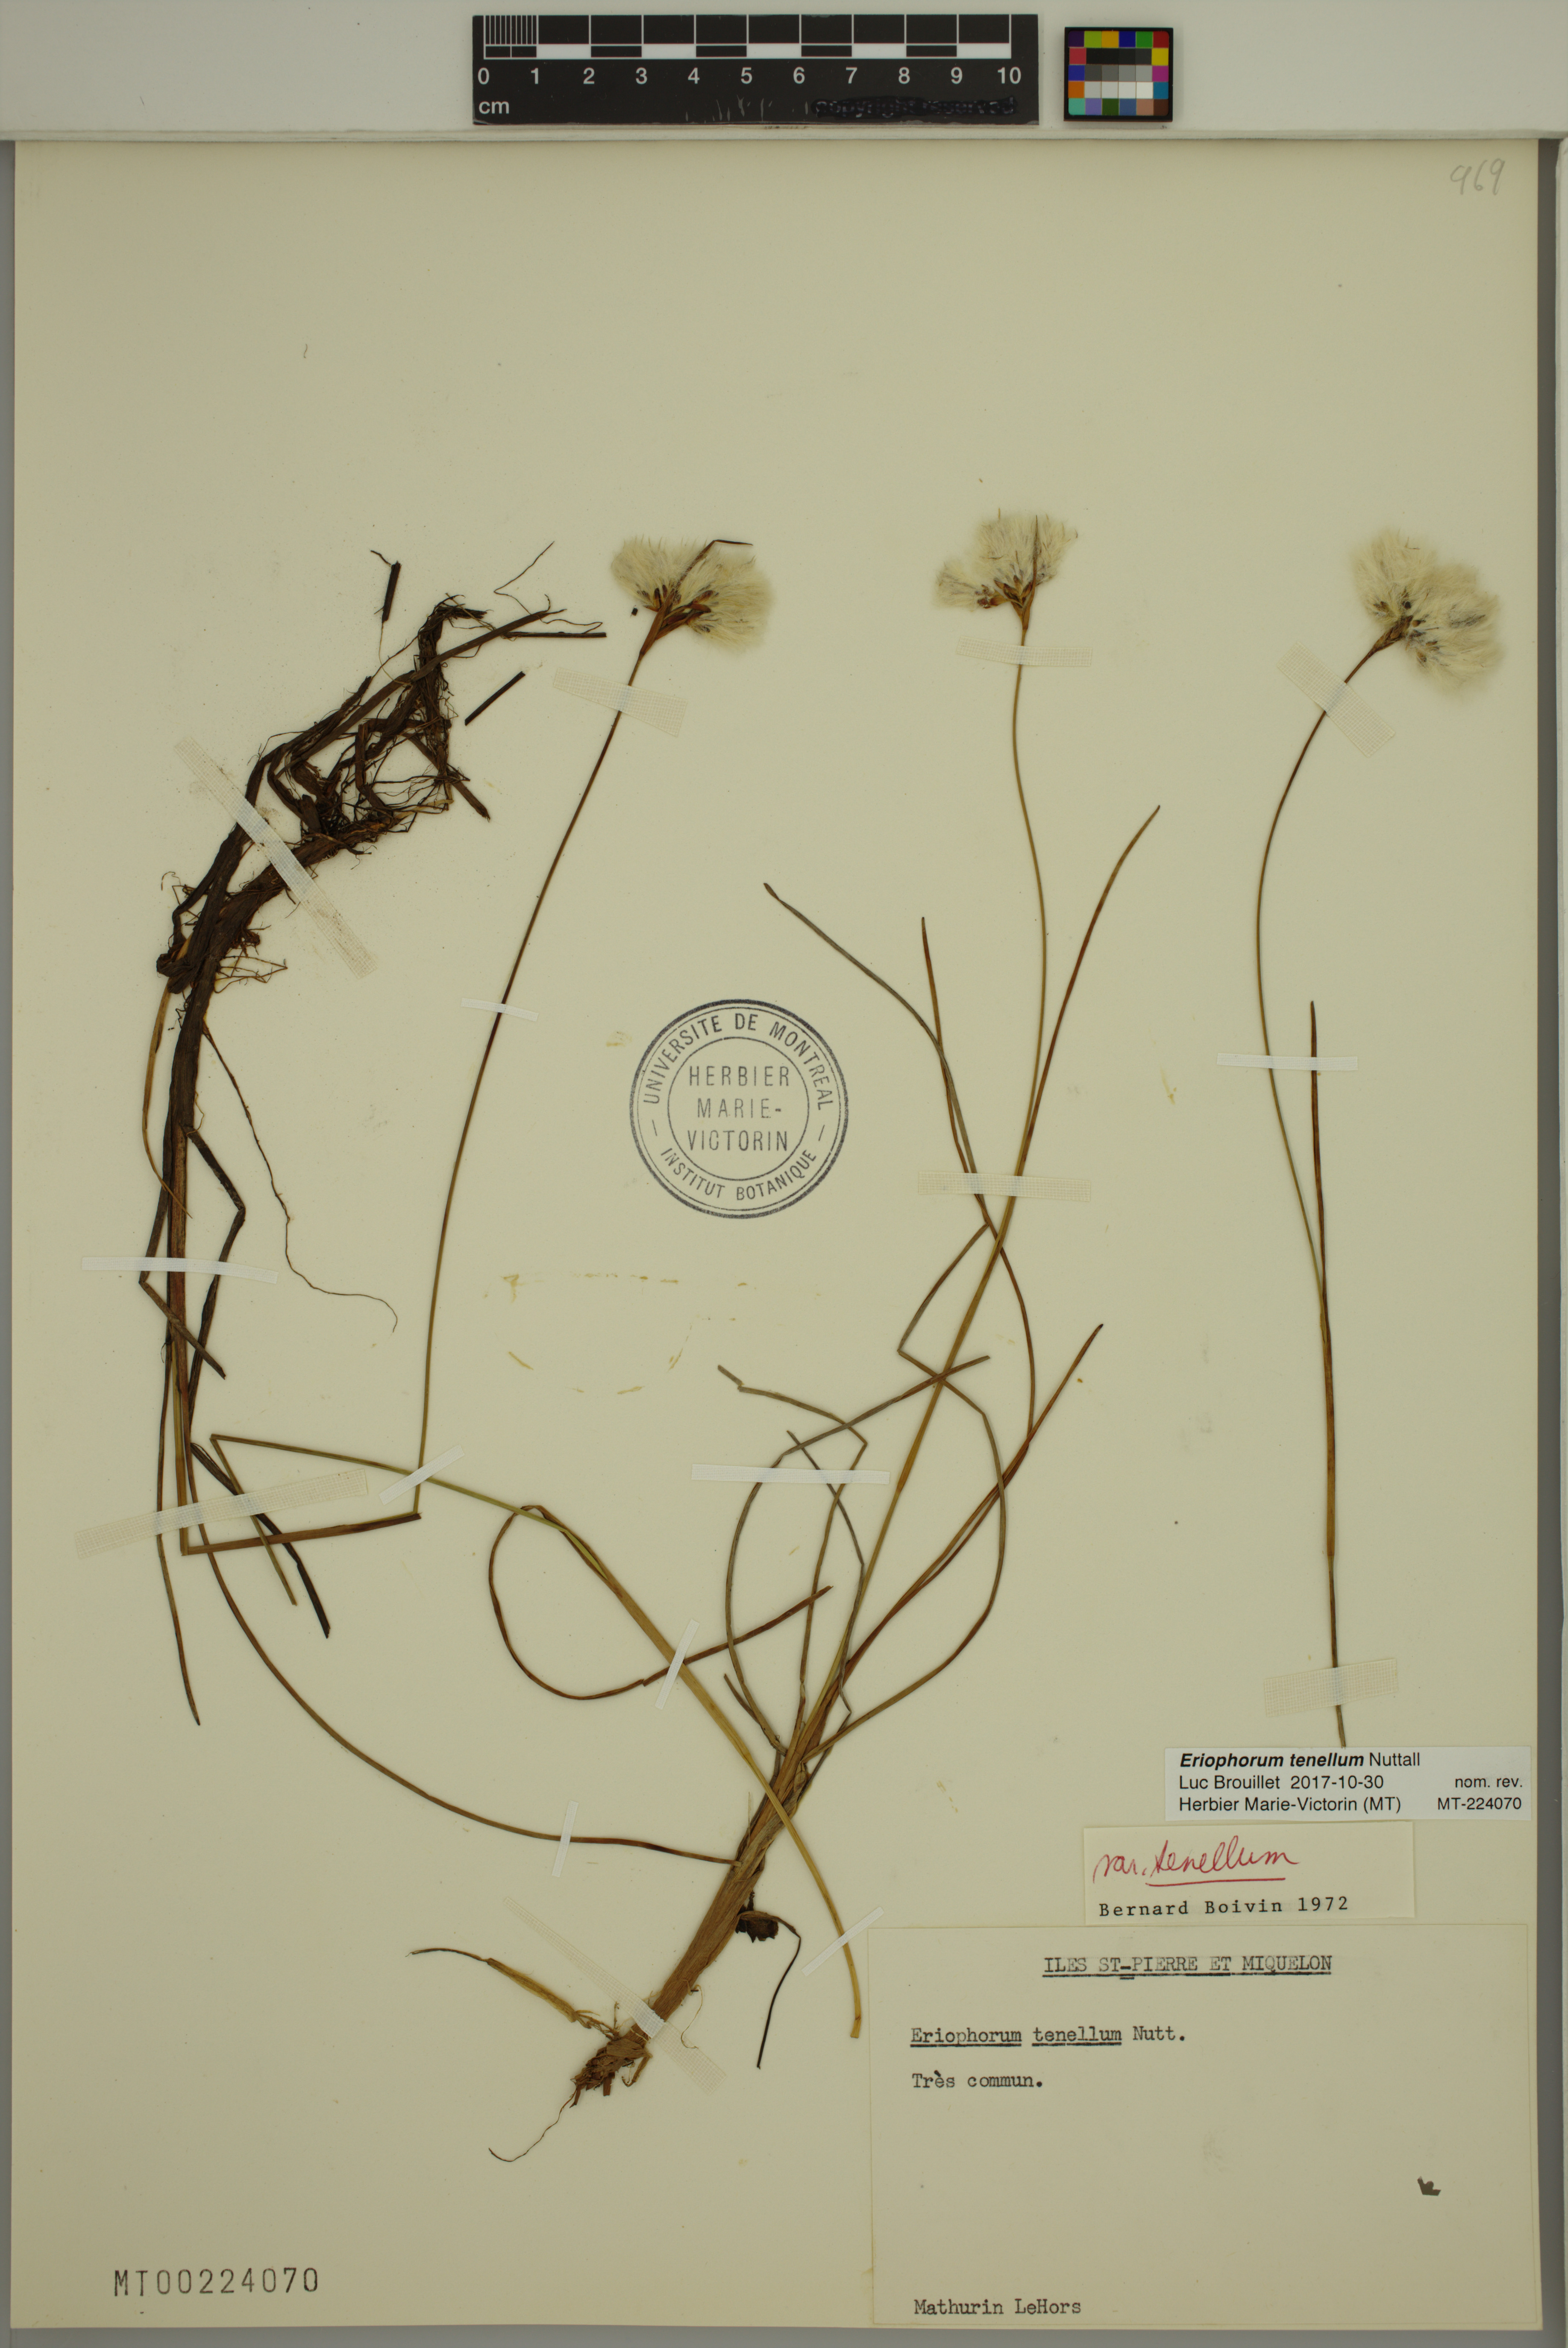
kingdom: Plantae
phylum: Tracheophyta
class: Liliopsida
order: Poales
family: Cyperaceae
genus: Eriophorum
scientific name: Eriophorum tenellum
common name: Few-nerved cottongrass
